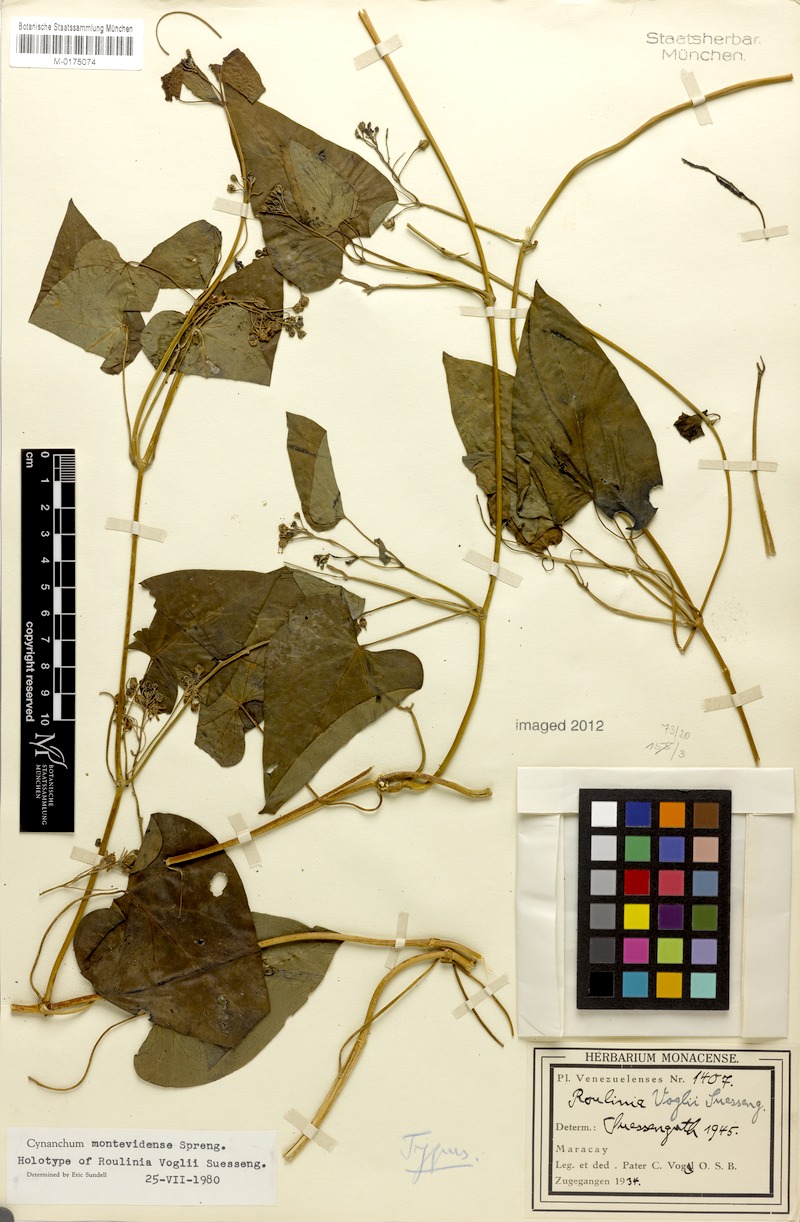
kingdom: Plantae
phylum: Tracheophyta
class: Magnoliopsida
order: Gentianales
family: Apocynaceae
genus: Cynanchum
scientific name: Cynanchum montevidense
